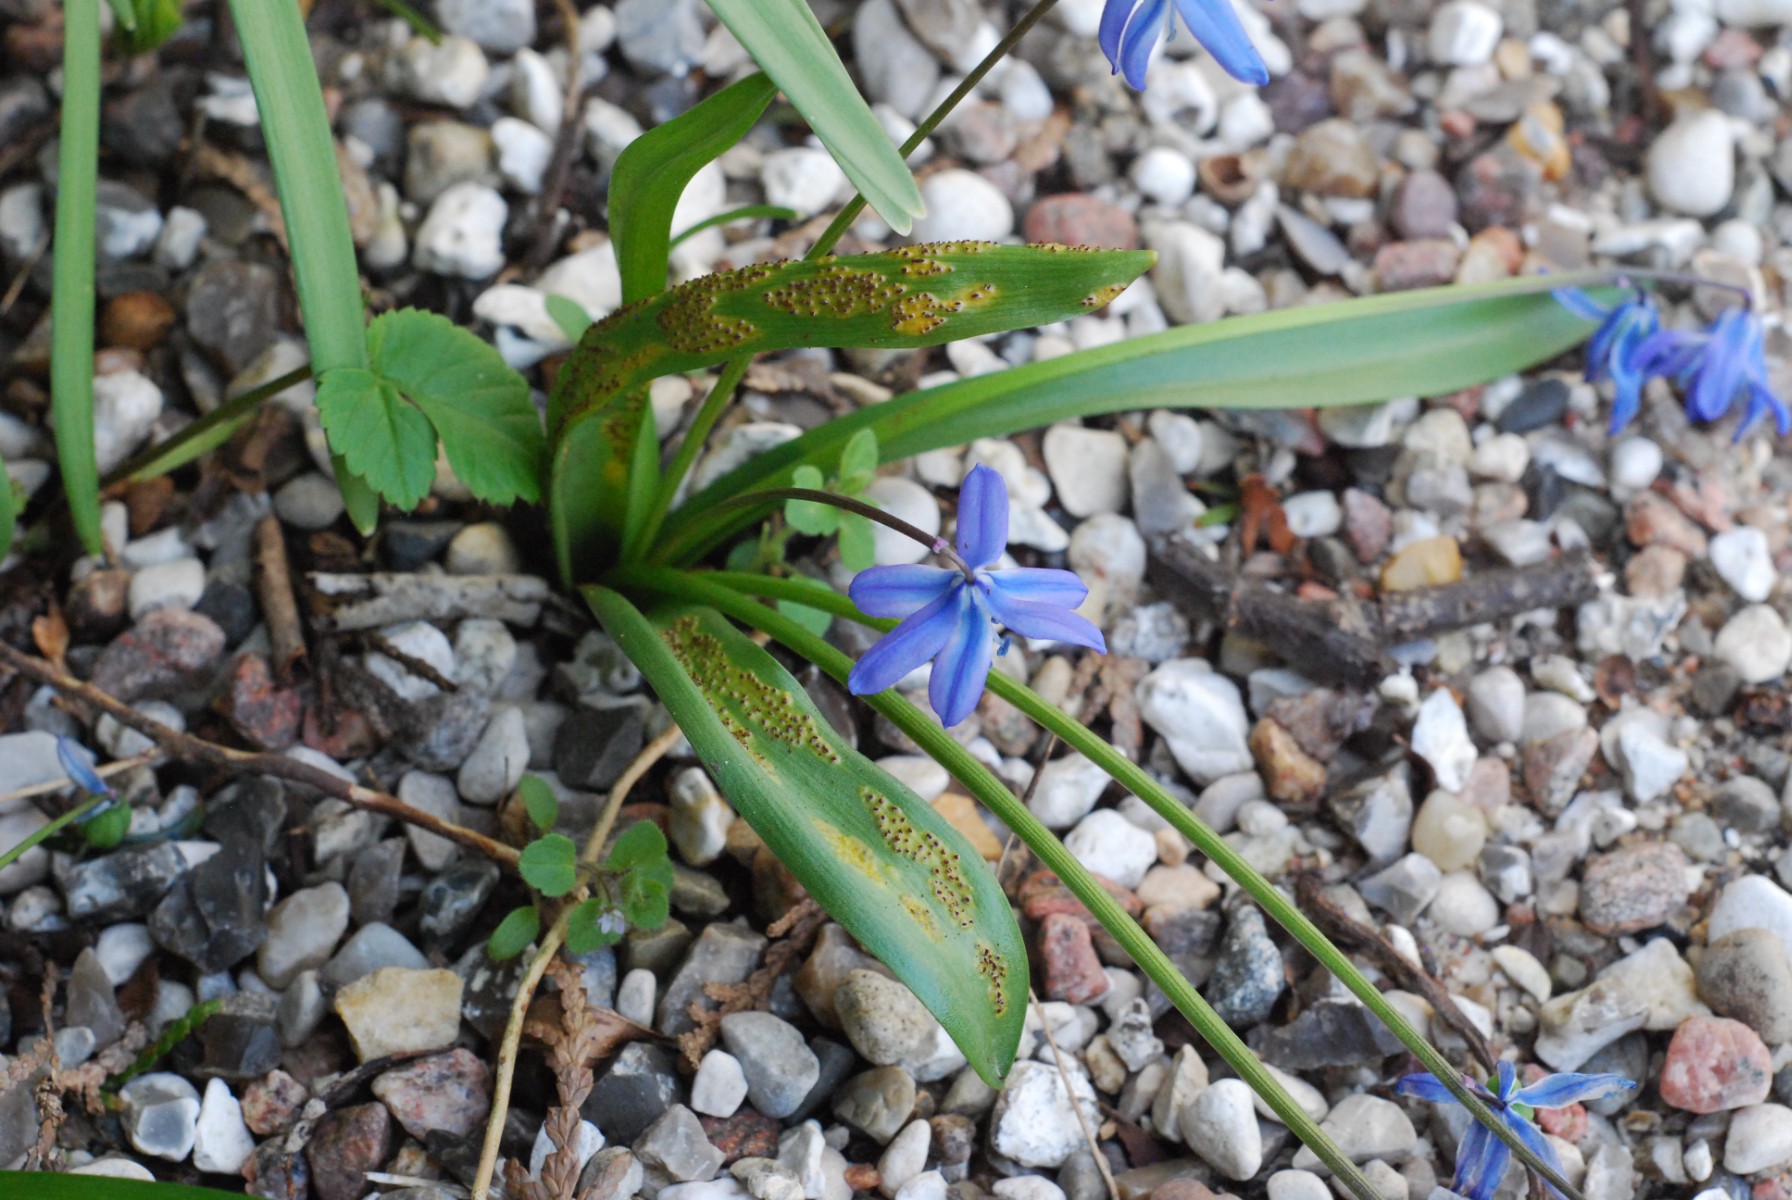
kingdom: Fungi
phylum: Basidiomycota
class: Pucciniomycetes
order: Pucciniales
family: Pucciniaceae
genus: Puccinia
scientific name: Puccinia scillae
